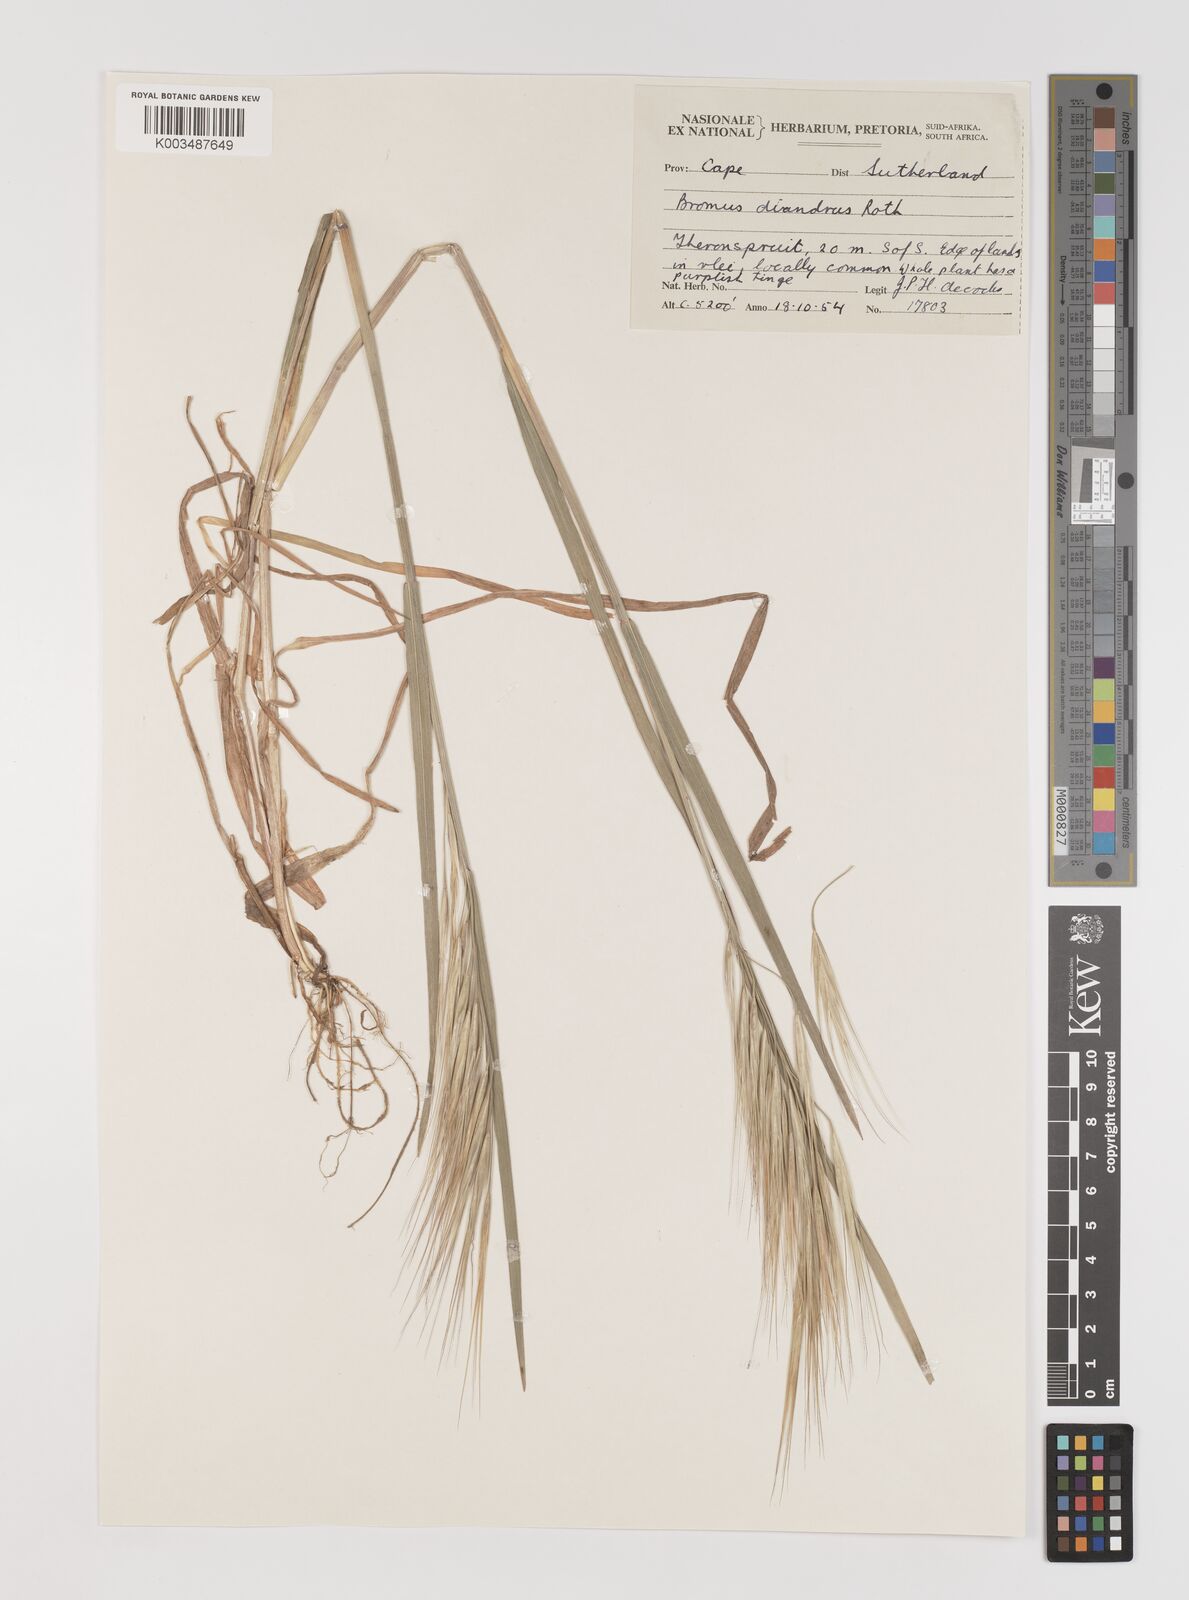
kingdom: Plantae
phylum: Tracheophyta
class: Liliopsida
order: Poales
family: Poaceae
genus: Bromus
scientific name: Bromus diandrus
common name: Ripgut brome
